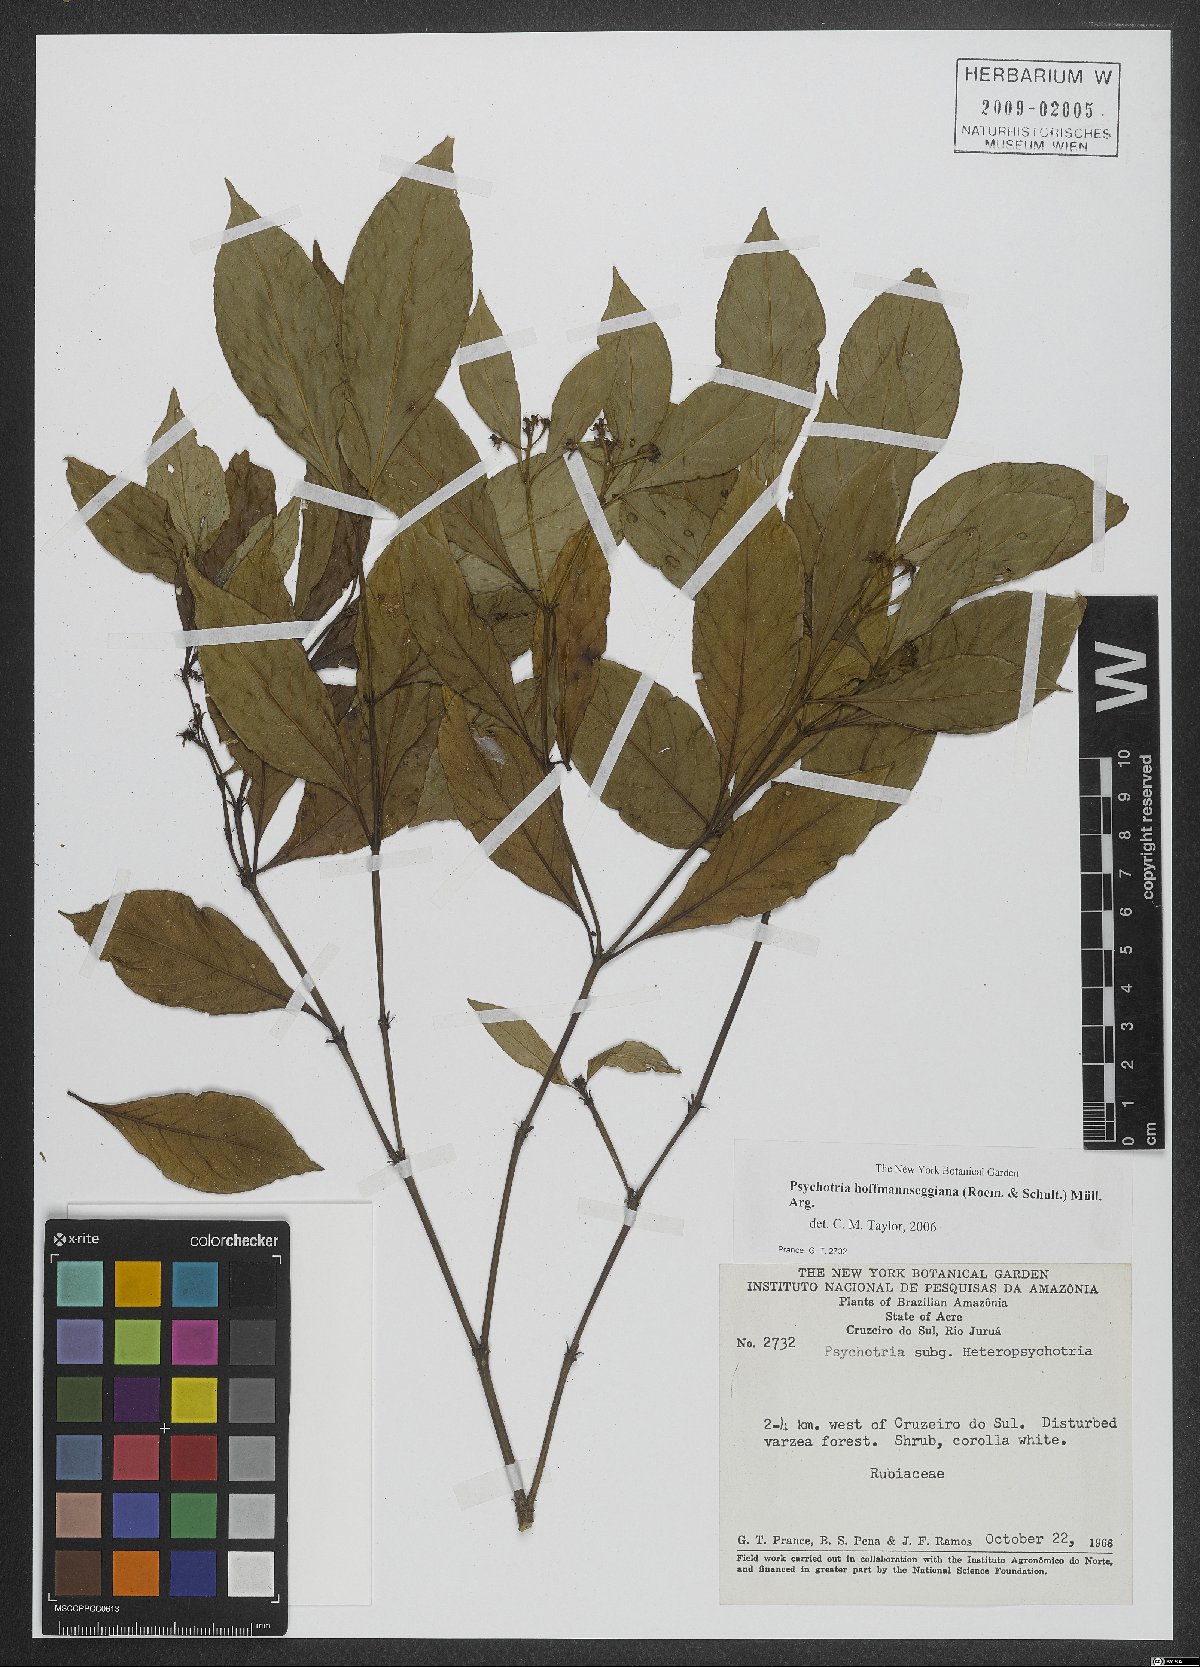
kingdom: Plantae
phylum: Tracheophyta
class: Magnoliopsida
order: Gentianales
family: Rubiaceae
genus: Palicourea
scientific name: Palicourea hoffmannseggiana
